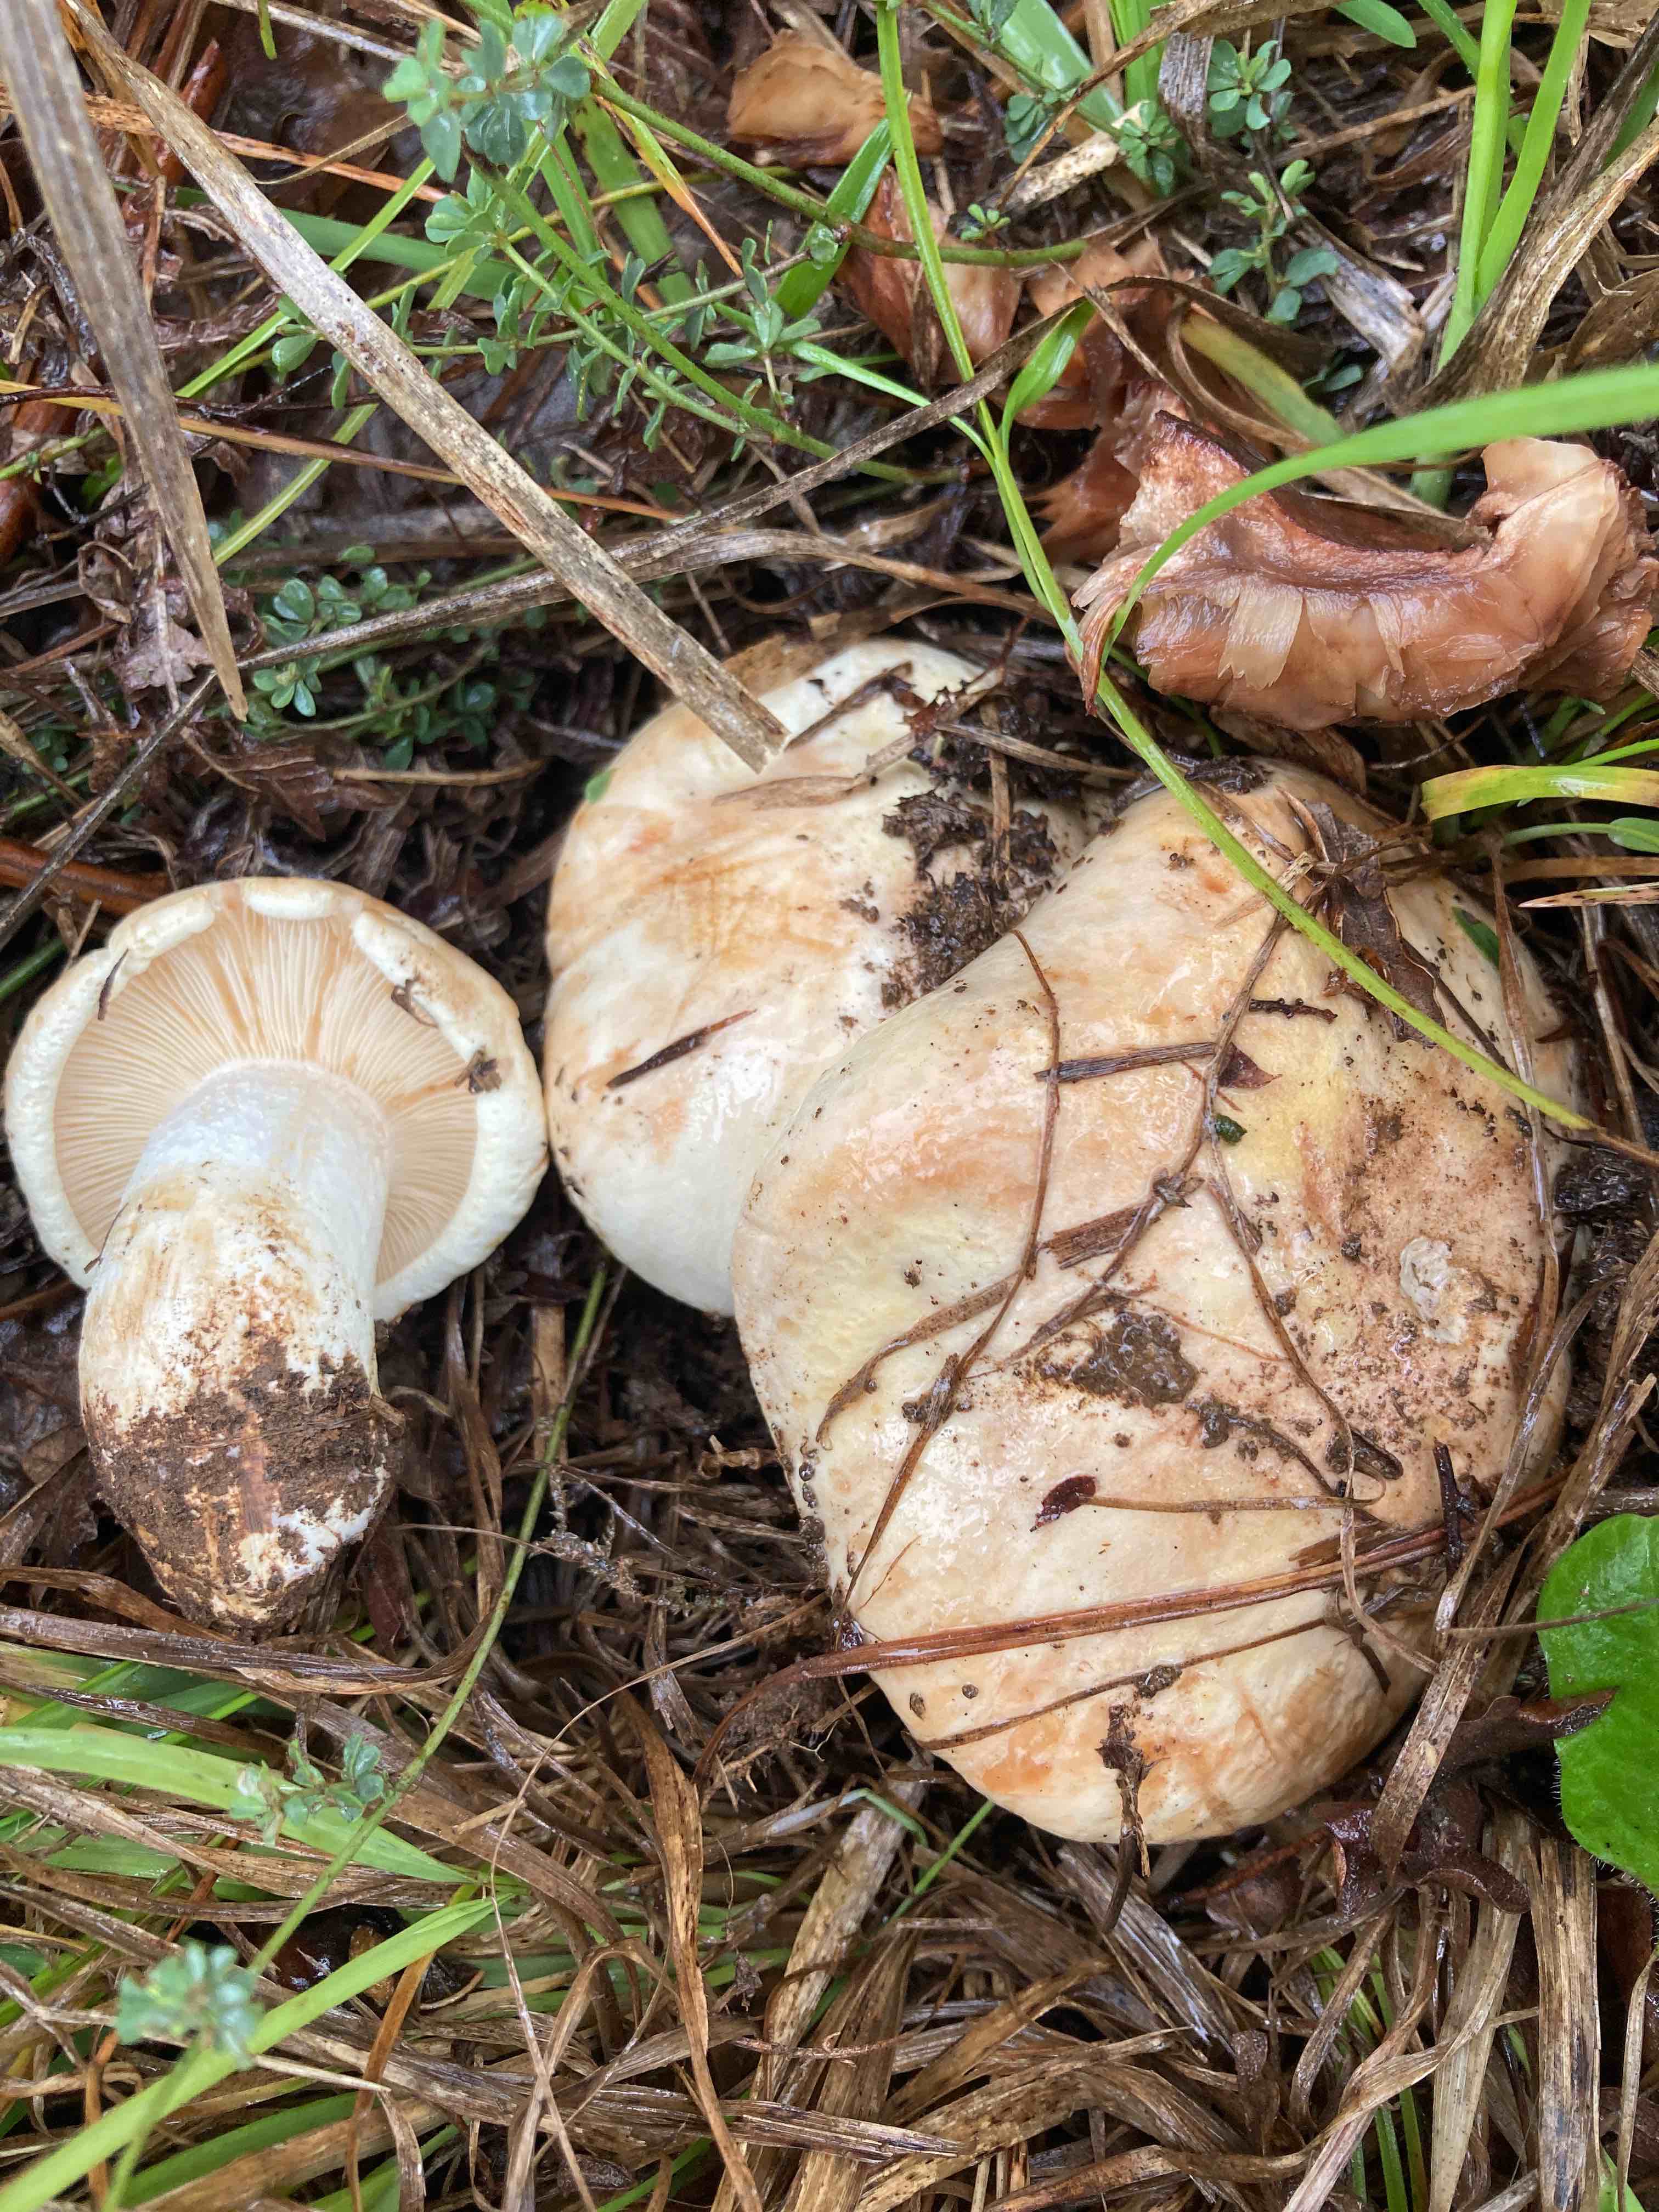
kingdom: Fungi
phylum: Basidiomycota
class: Agaricomycetes
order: Agaricales
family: Tricholomataceae
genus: Tricholoma
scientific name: Tricholoma acerbum
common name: stor ridderhat
